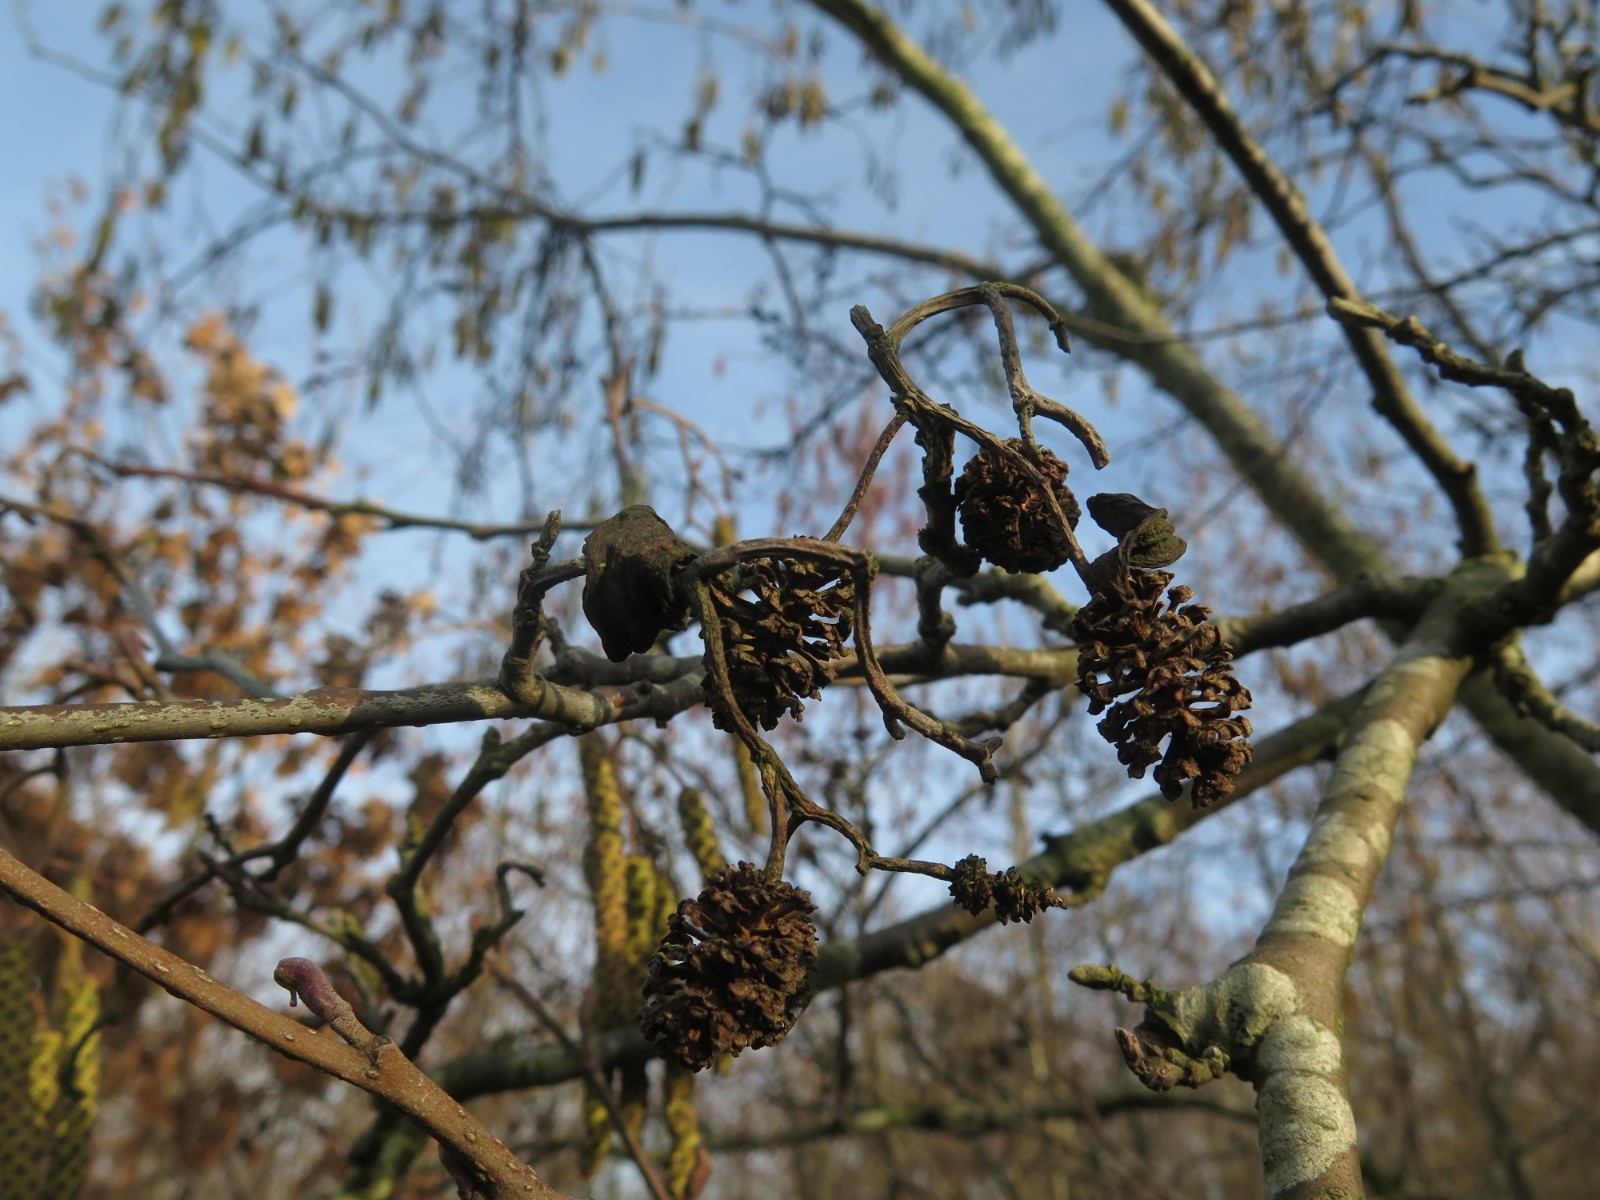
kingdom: Fungi
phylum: Ascomycota
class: Taphrinomycetes
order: Taphrinales
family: Taphrinaceae
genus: Taphrina
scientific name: Taphrina alni
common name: Alder tongue
